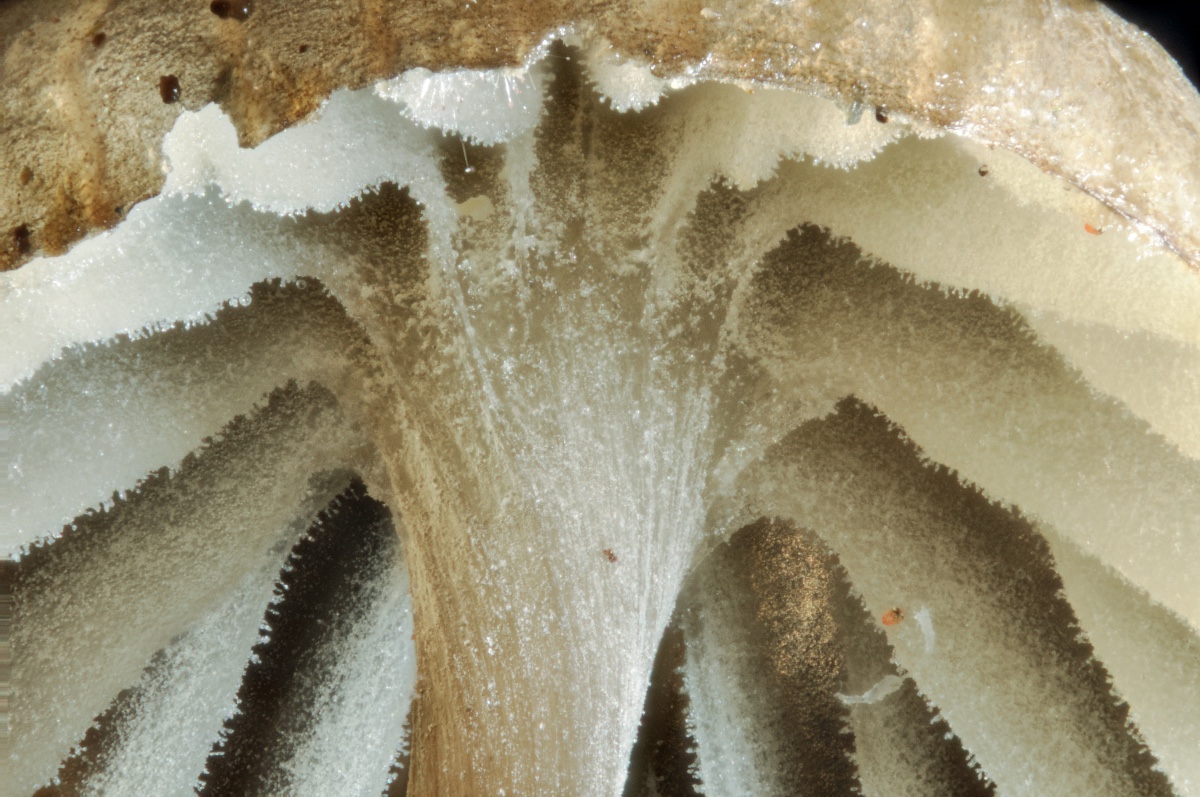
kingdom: Fungi
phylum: Basidiomycota
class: Agaricomycetes
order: Agaricales
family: Mycenaceae
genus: Mycena
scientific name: Mycena galopus
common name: hvidmælket huesvamp
